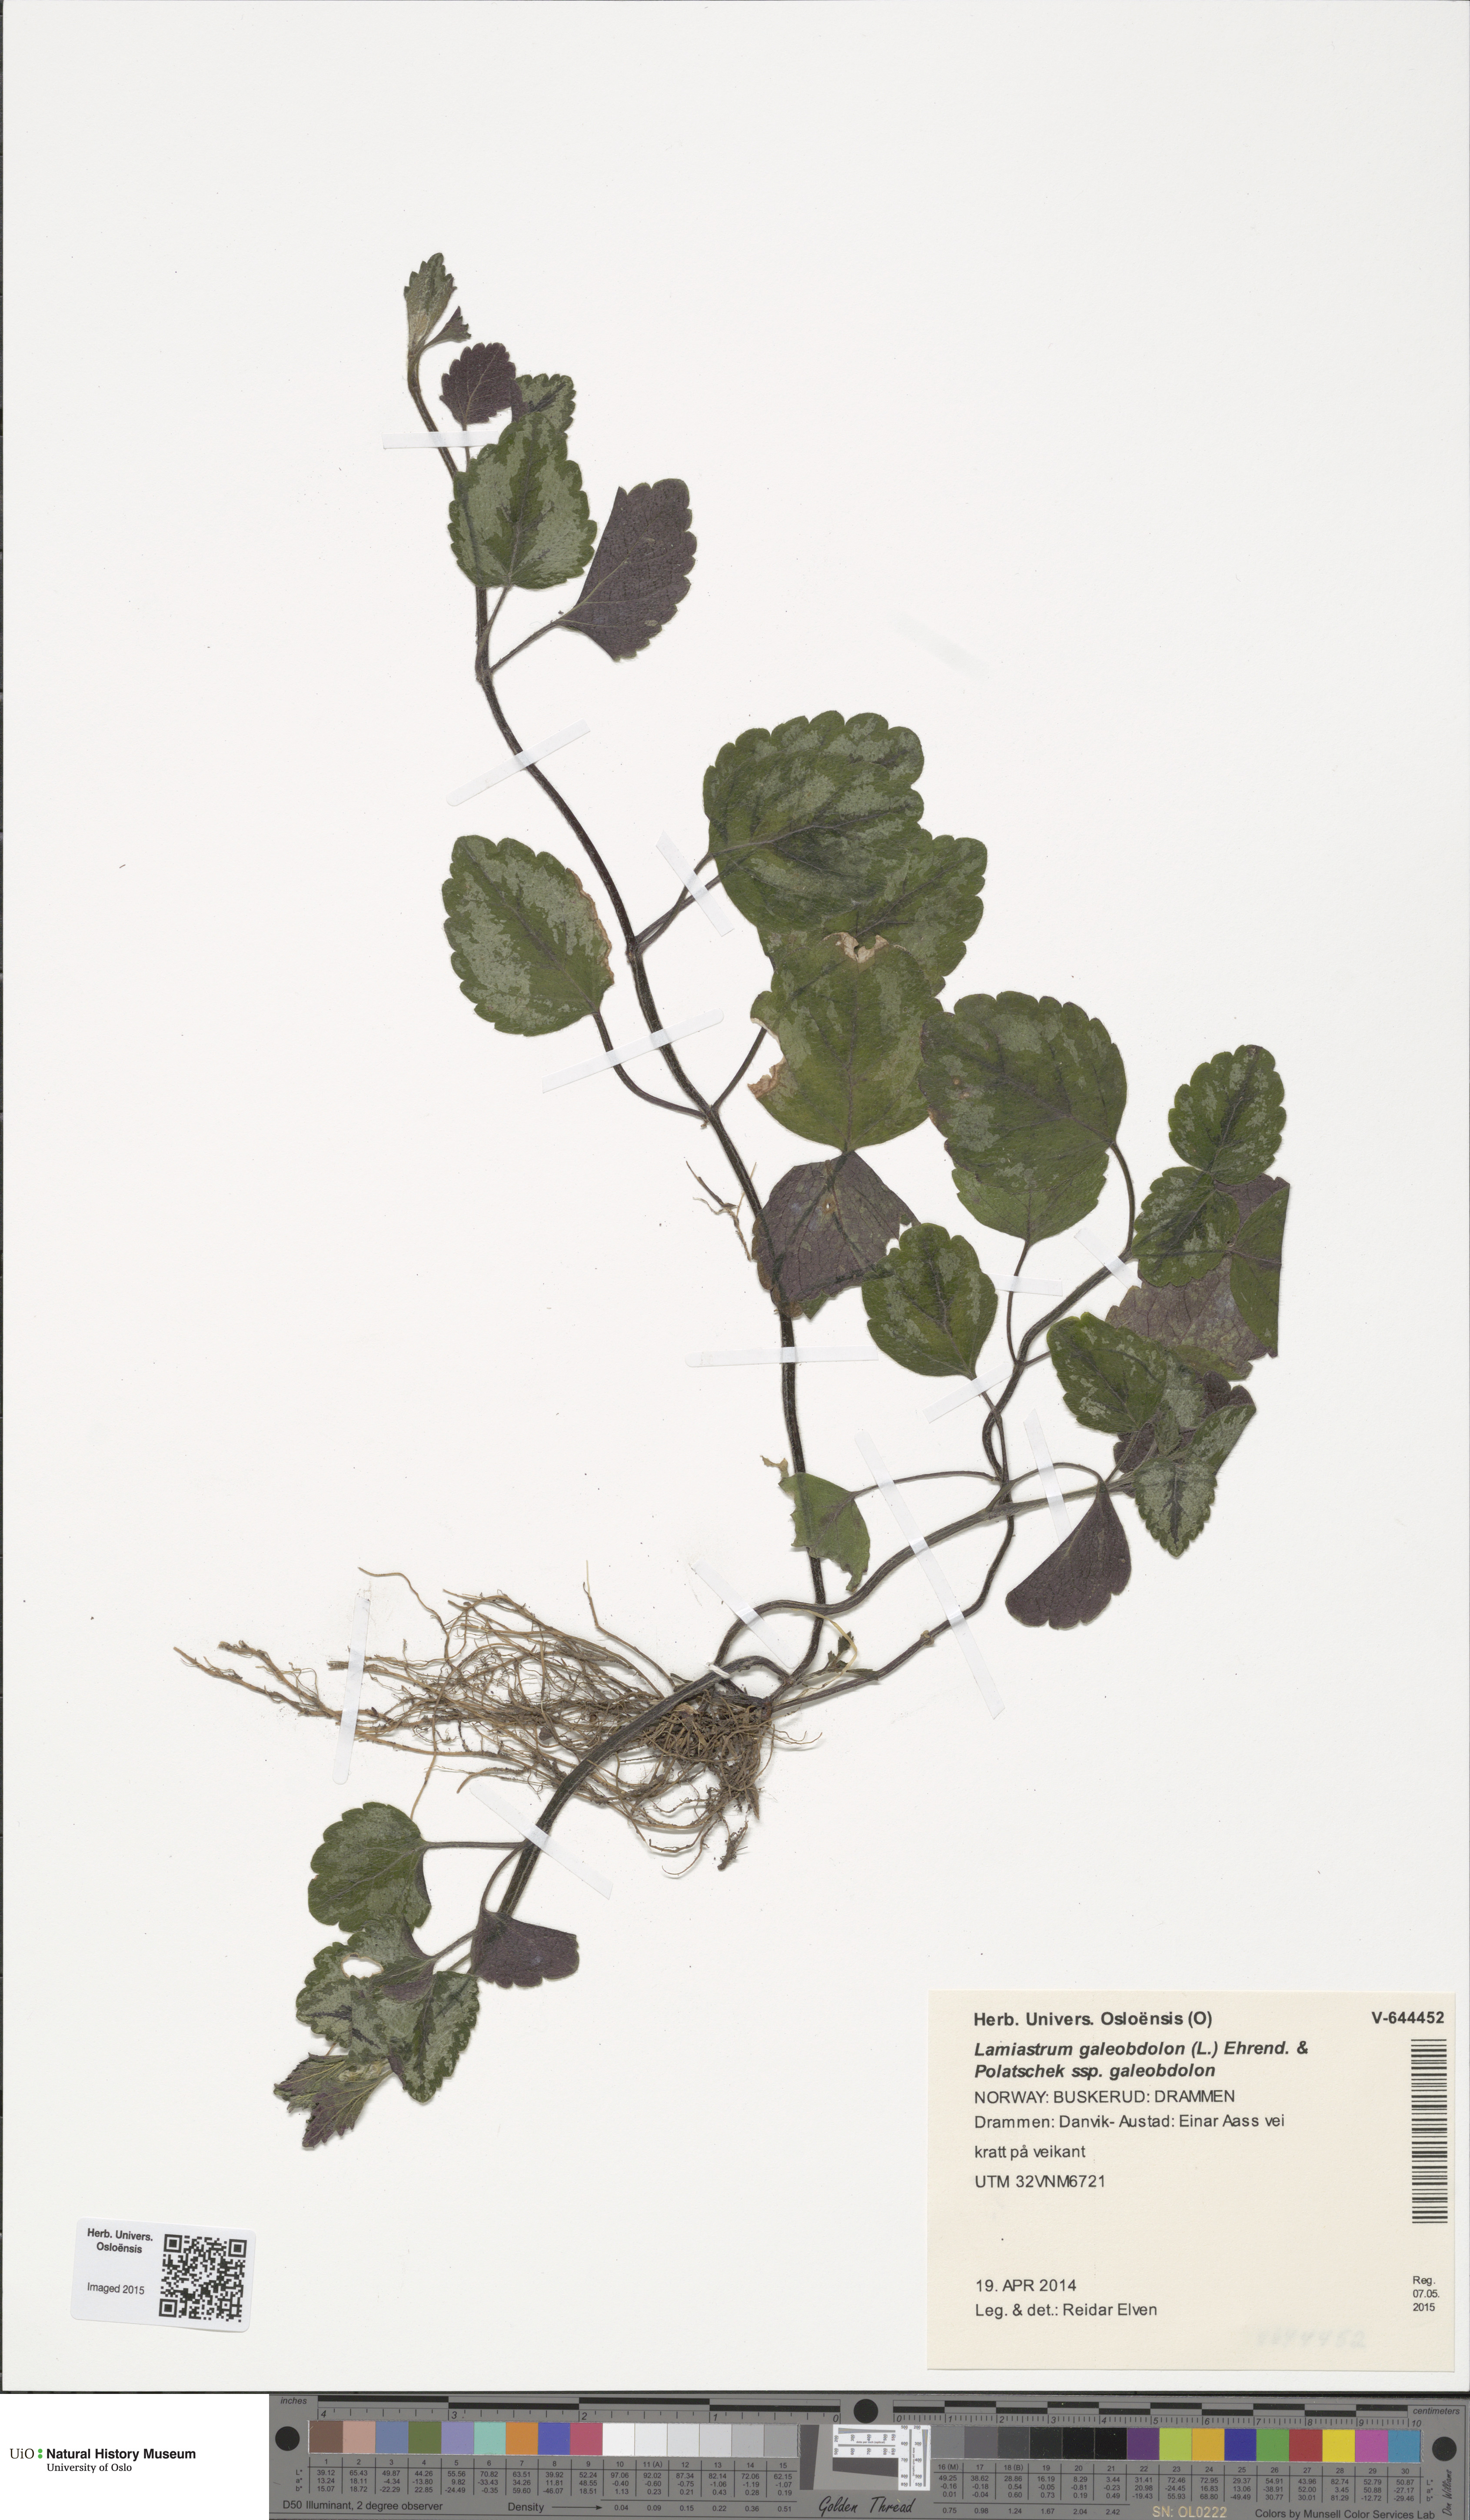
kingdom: Plantae
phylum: Tracheophyta
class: Magnoliopsida
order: Lamiales
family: Lamiaceae
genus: Lamium
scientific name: Lamium galeobdolon
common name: Yellow archangel
